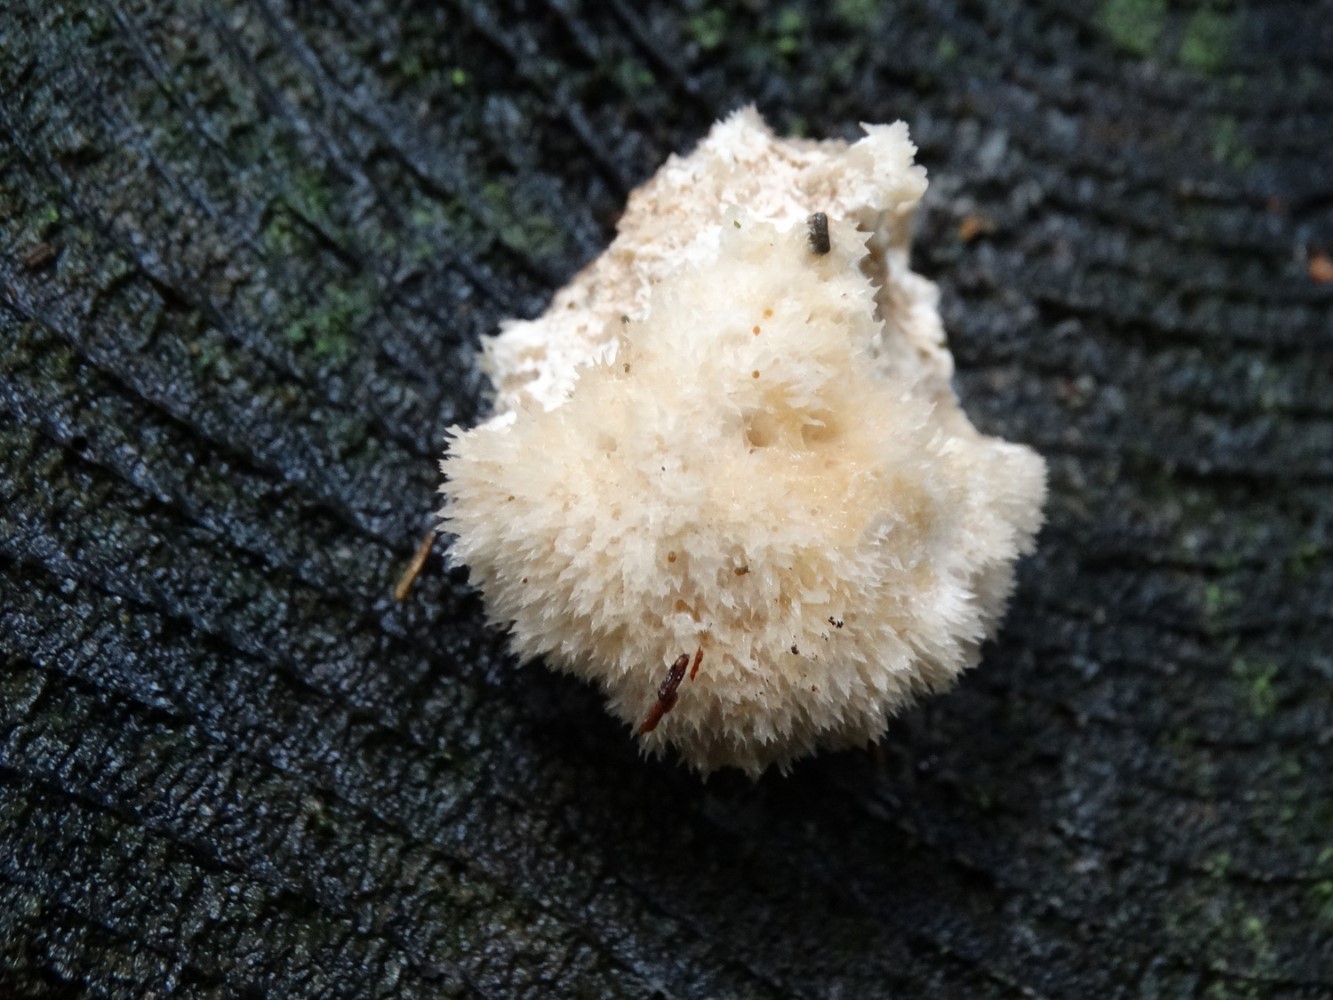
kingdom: Fungi
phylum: Basidiomycota
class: Agaricomycetes
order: Polyporales
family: Dacryobolaceae
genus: Postia
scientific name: Postia ptychogaster
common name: støvende kødporesvamp
